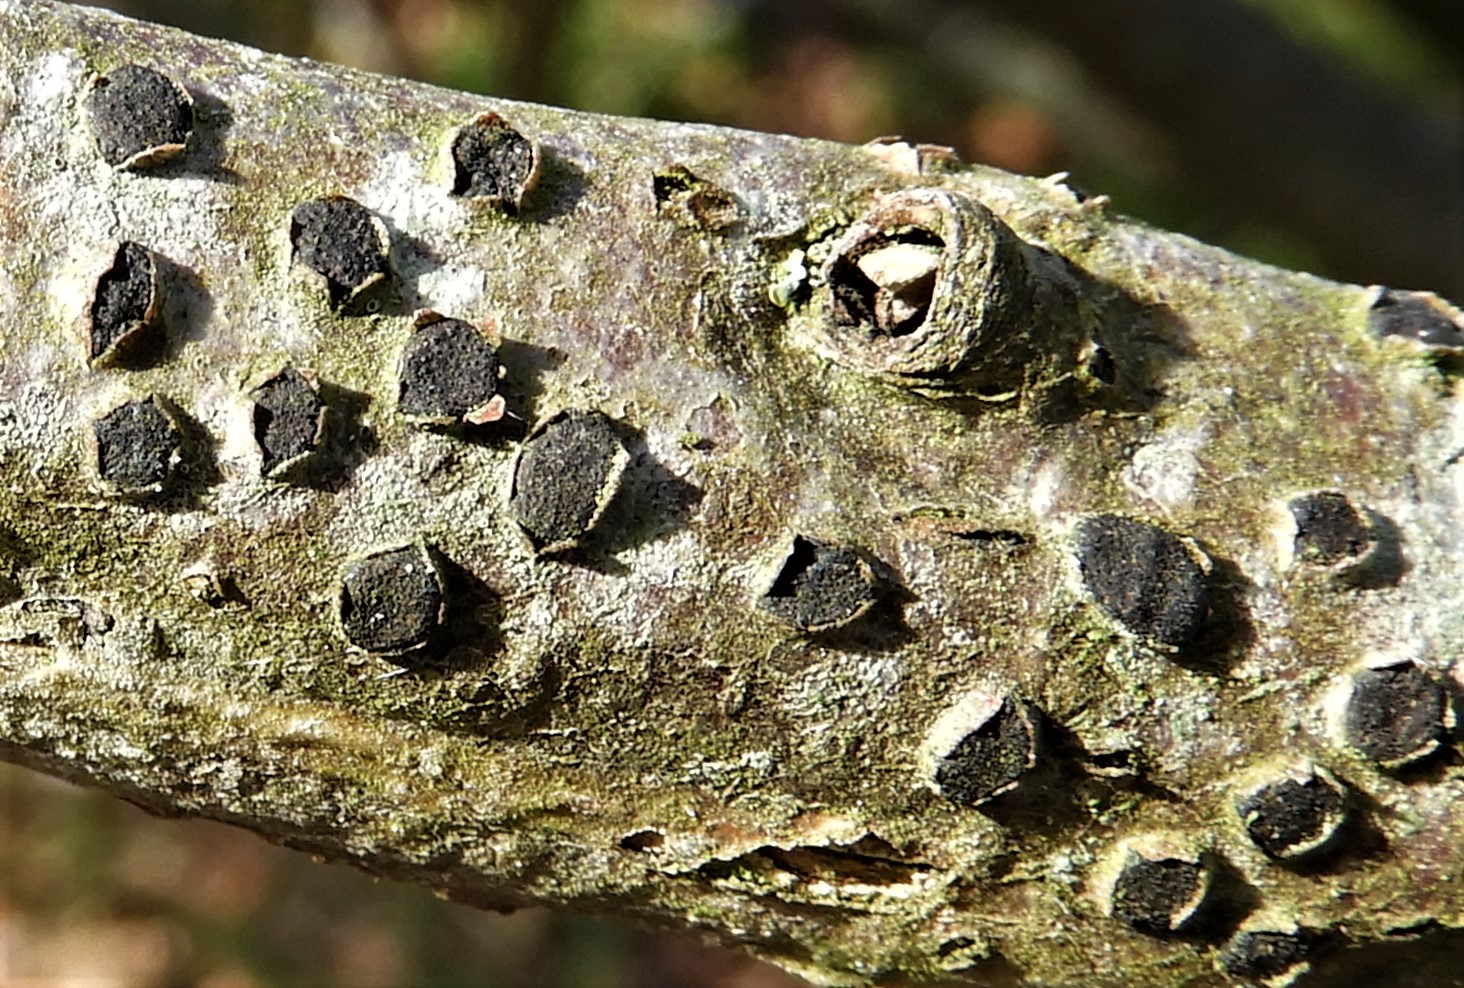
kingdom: Fungi
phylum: Ascomycota
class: Sordariomycetes
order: Xylariales
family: Diatrypaceae
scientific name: Diatrypaceae
